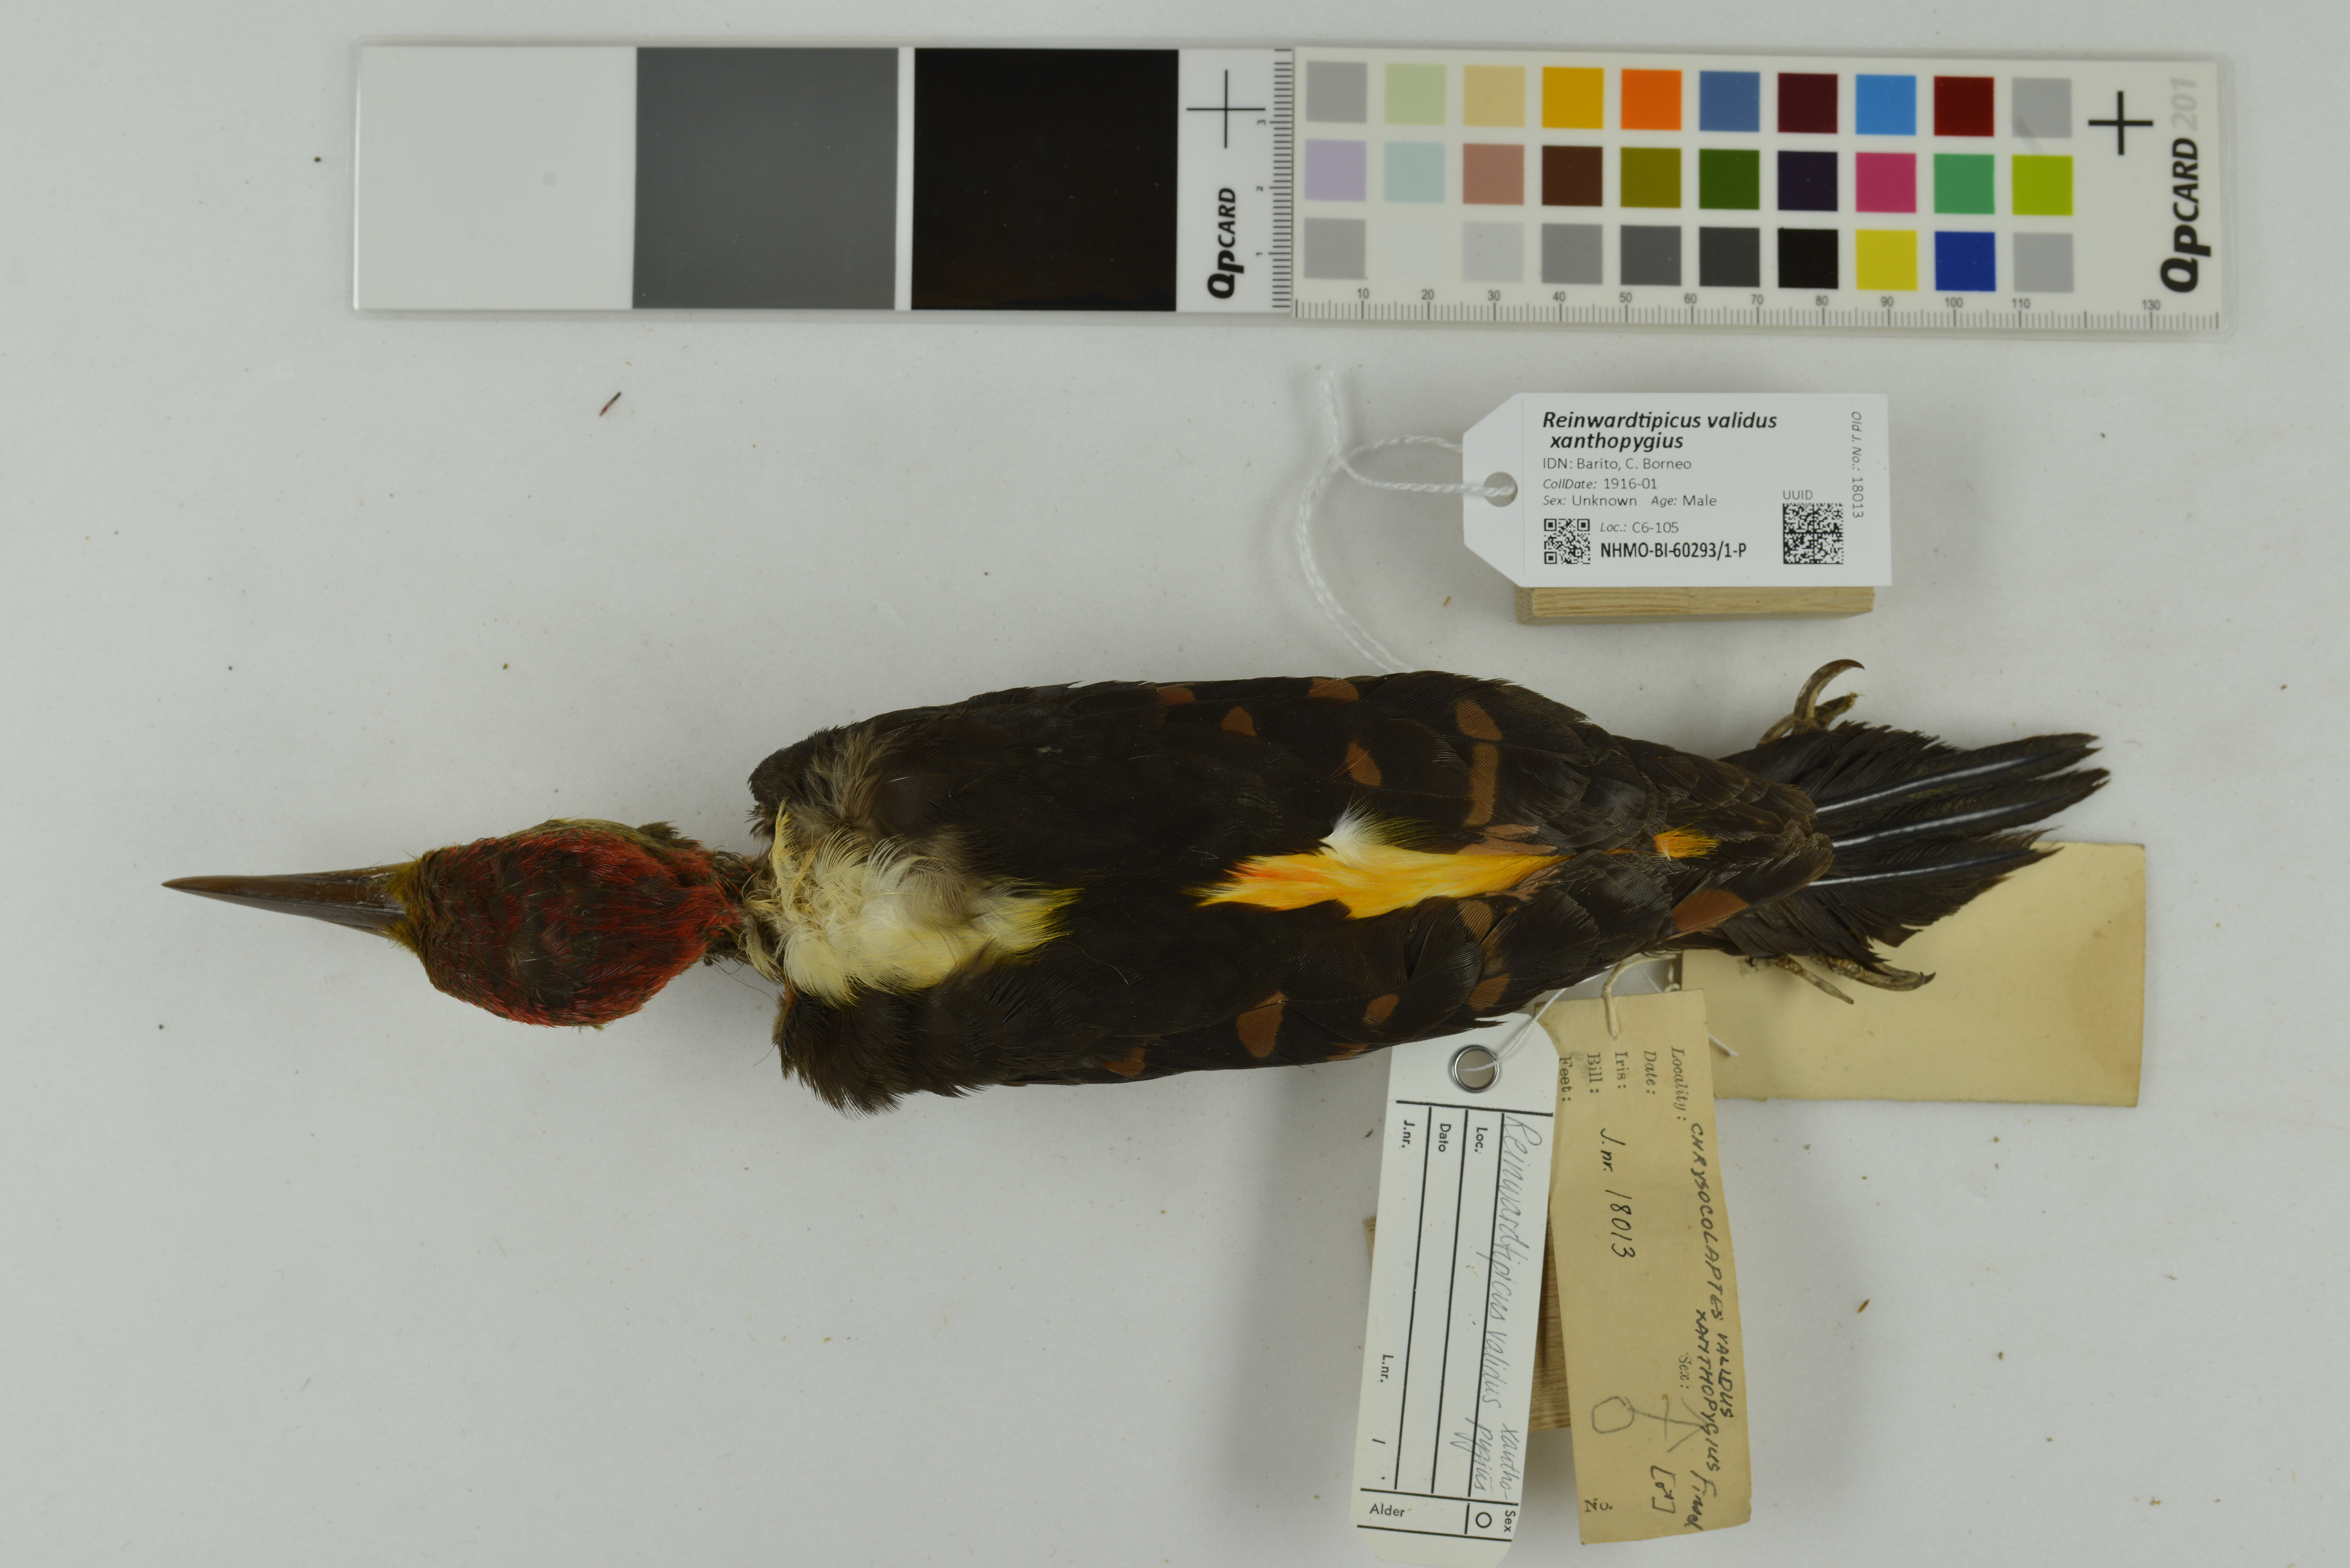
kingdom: Animalia
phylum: Chordata
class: Aves
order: Piciformes
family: Picidae
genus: Reinwardtipicus
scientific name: Reinwardtipicus validus
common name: Orange-backed woodpecker
